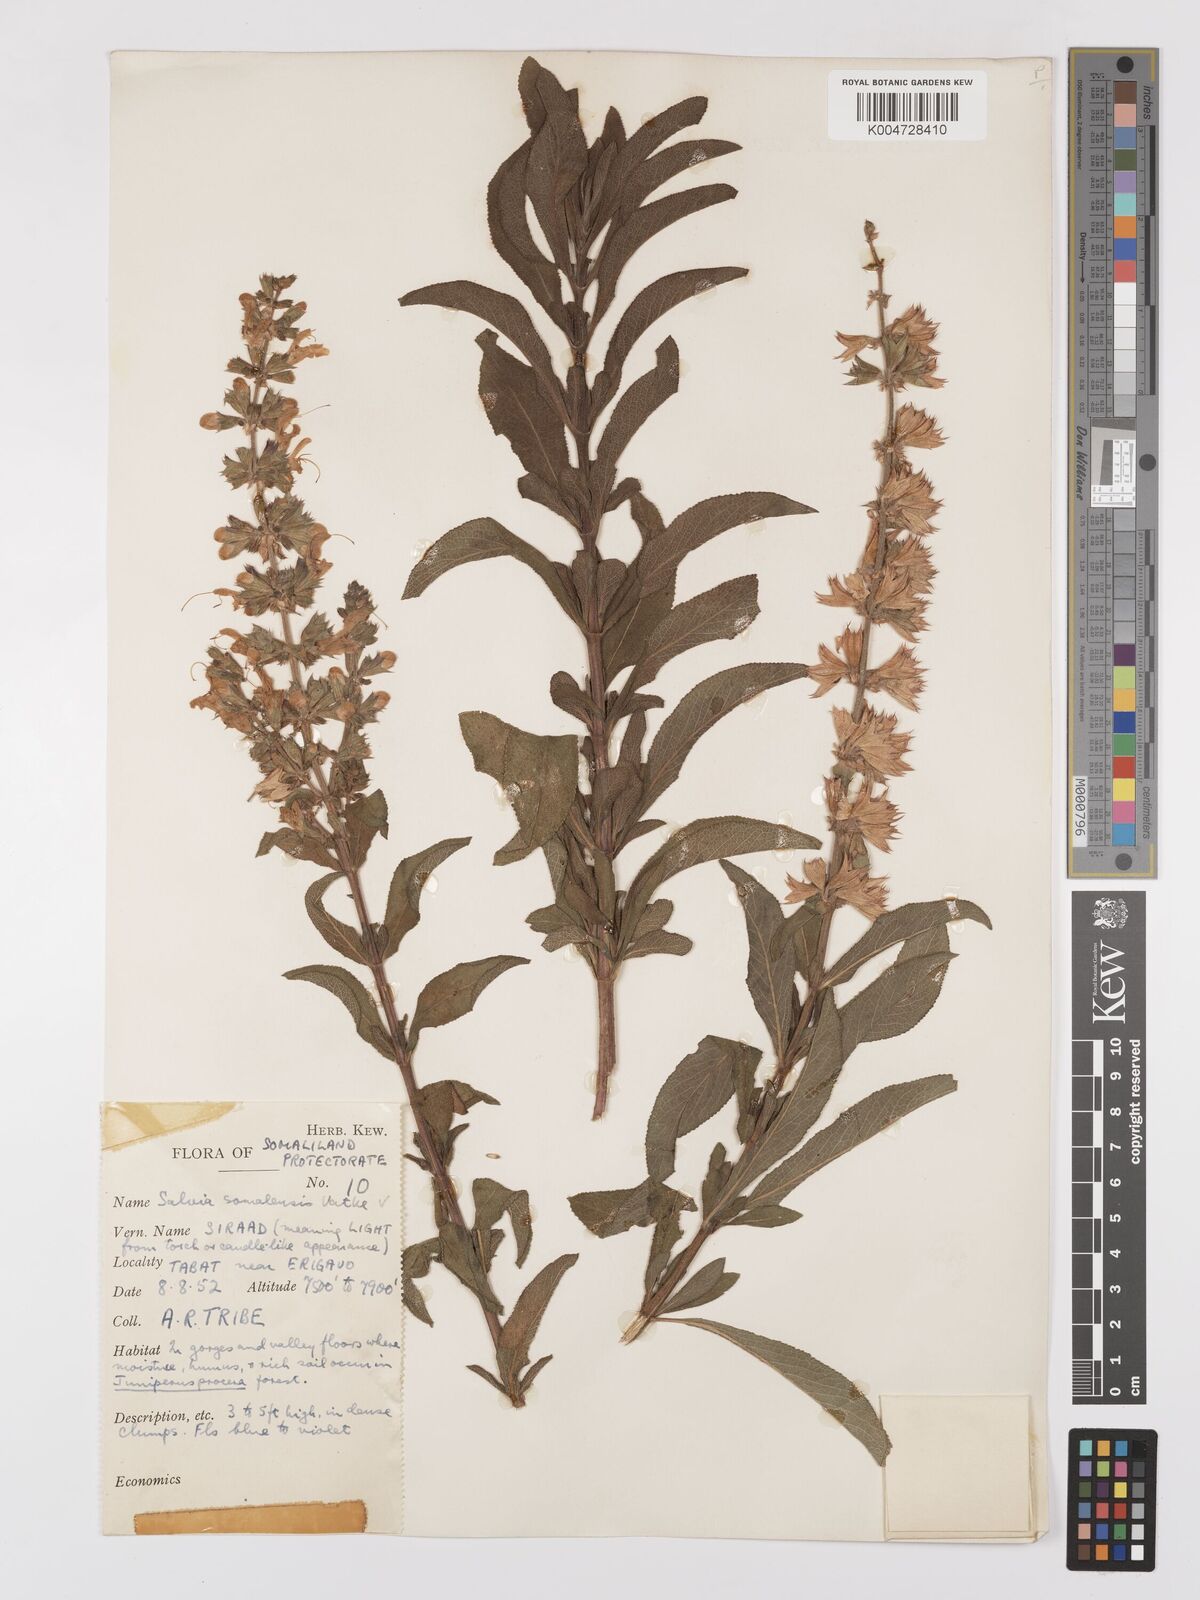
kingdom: Plantae
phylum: Tracheophyta
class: Magnoliopsida
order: Lamiales
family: Lamiaceae
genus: Salvia
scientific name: Salvia somalensis
